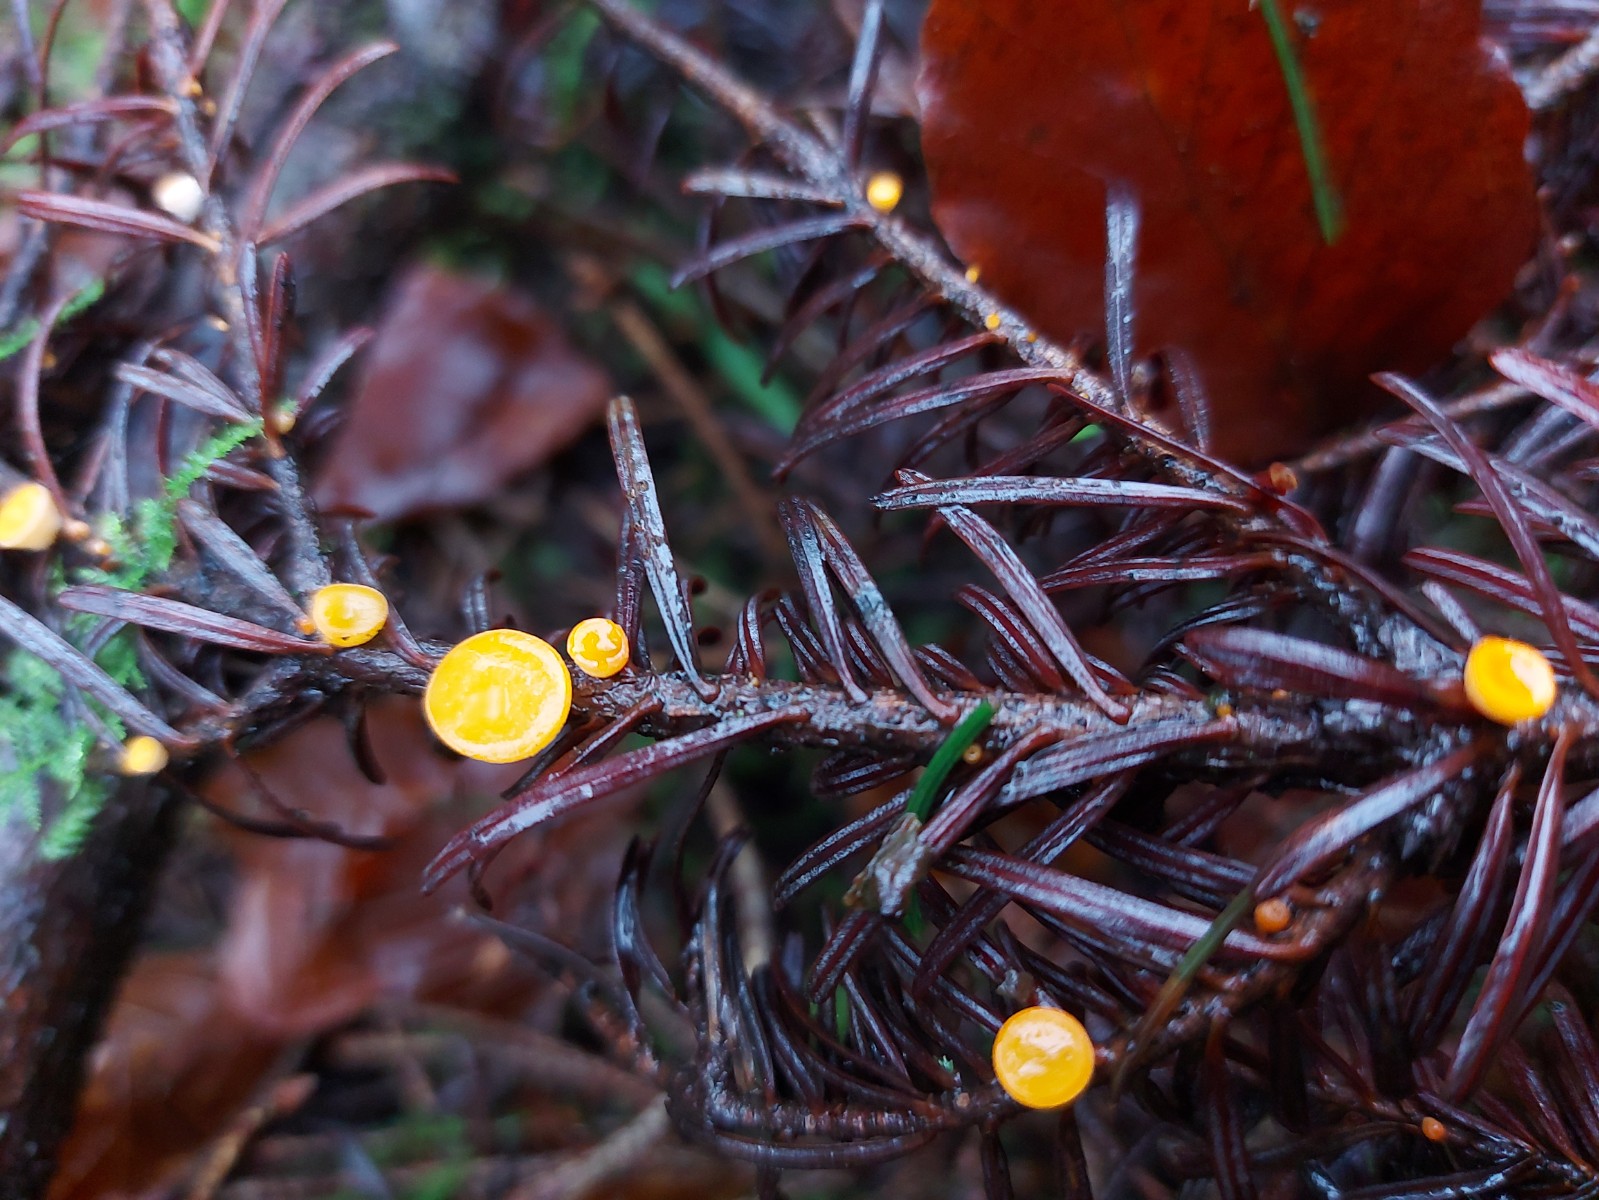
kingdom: Fungi
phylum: Ascomycota
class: Pezizomycetes
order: Pezizales
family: Sarcoscyphaceae
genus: Pithya
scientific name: Pithya vulgaris
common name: stor dukatbæger
